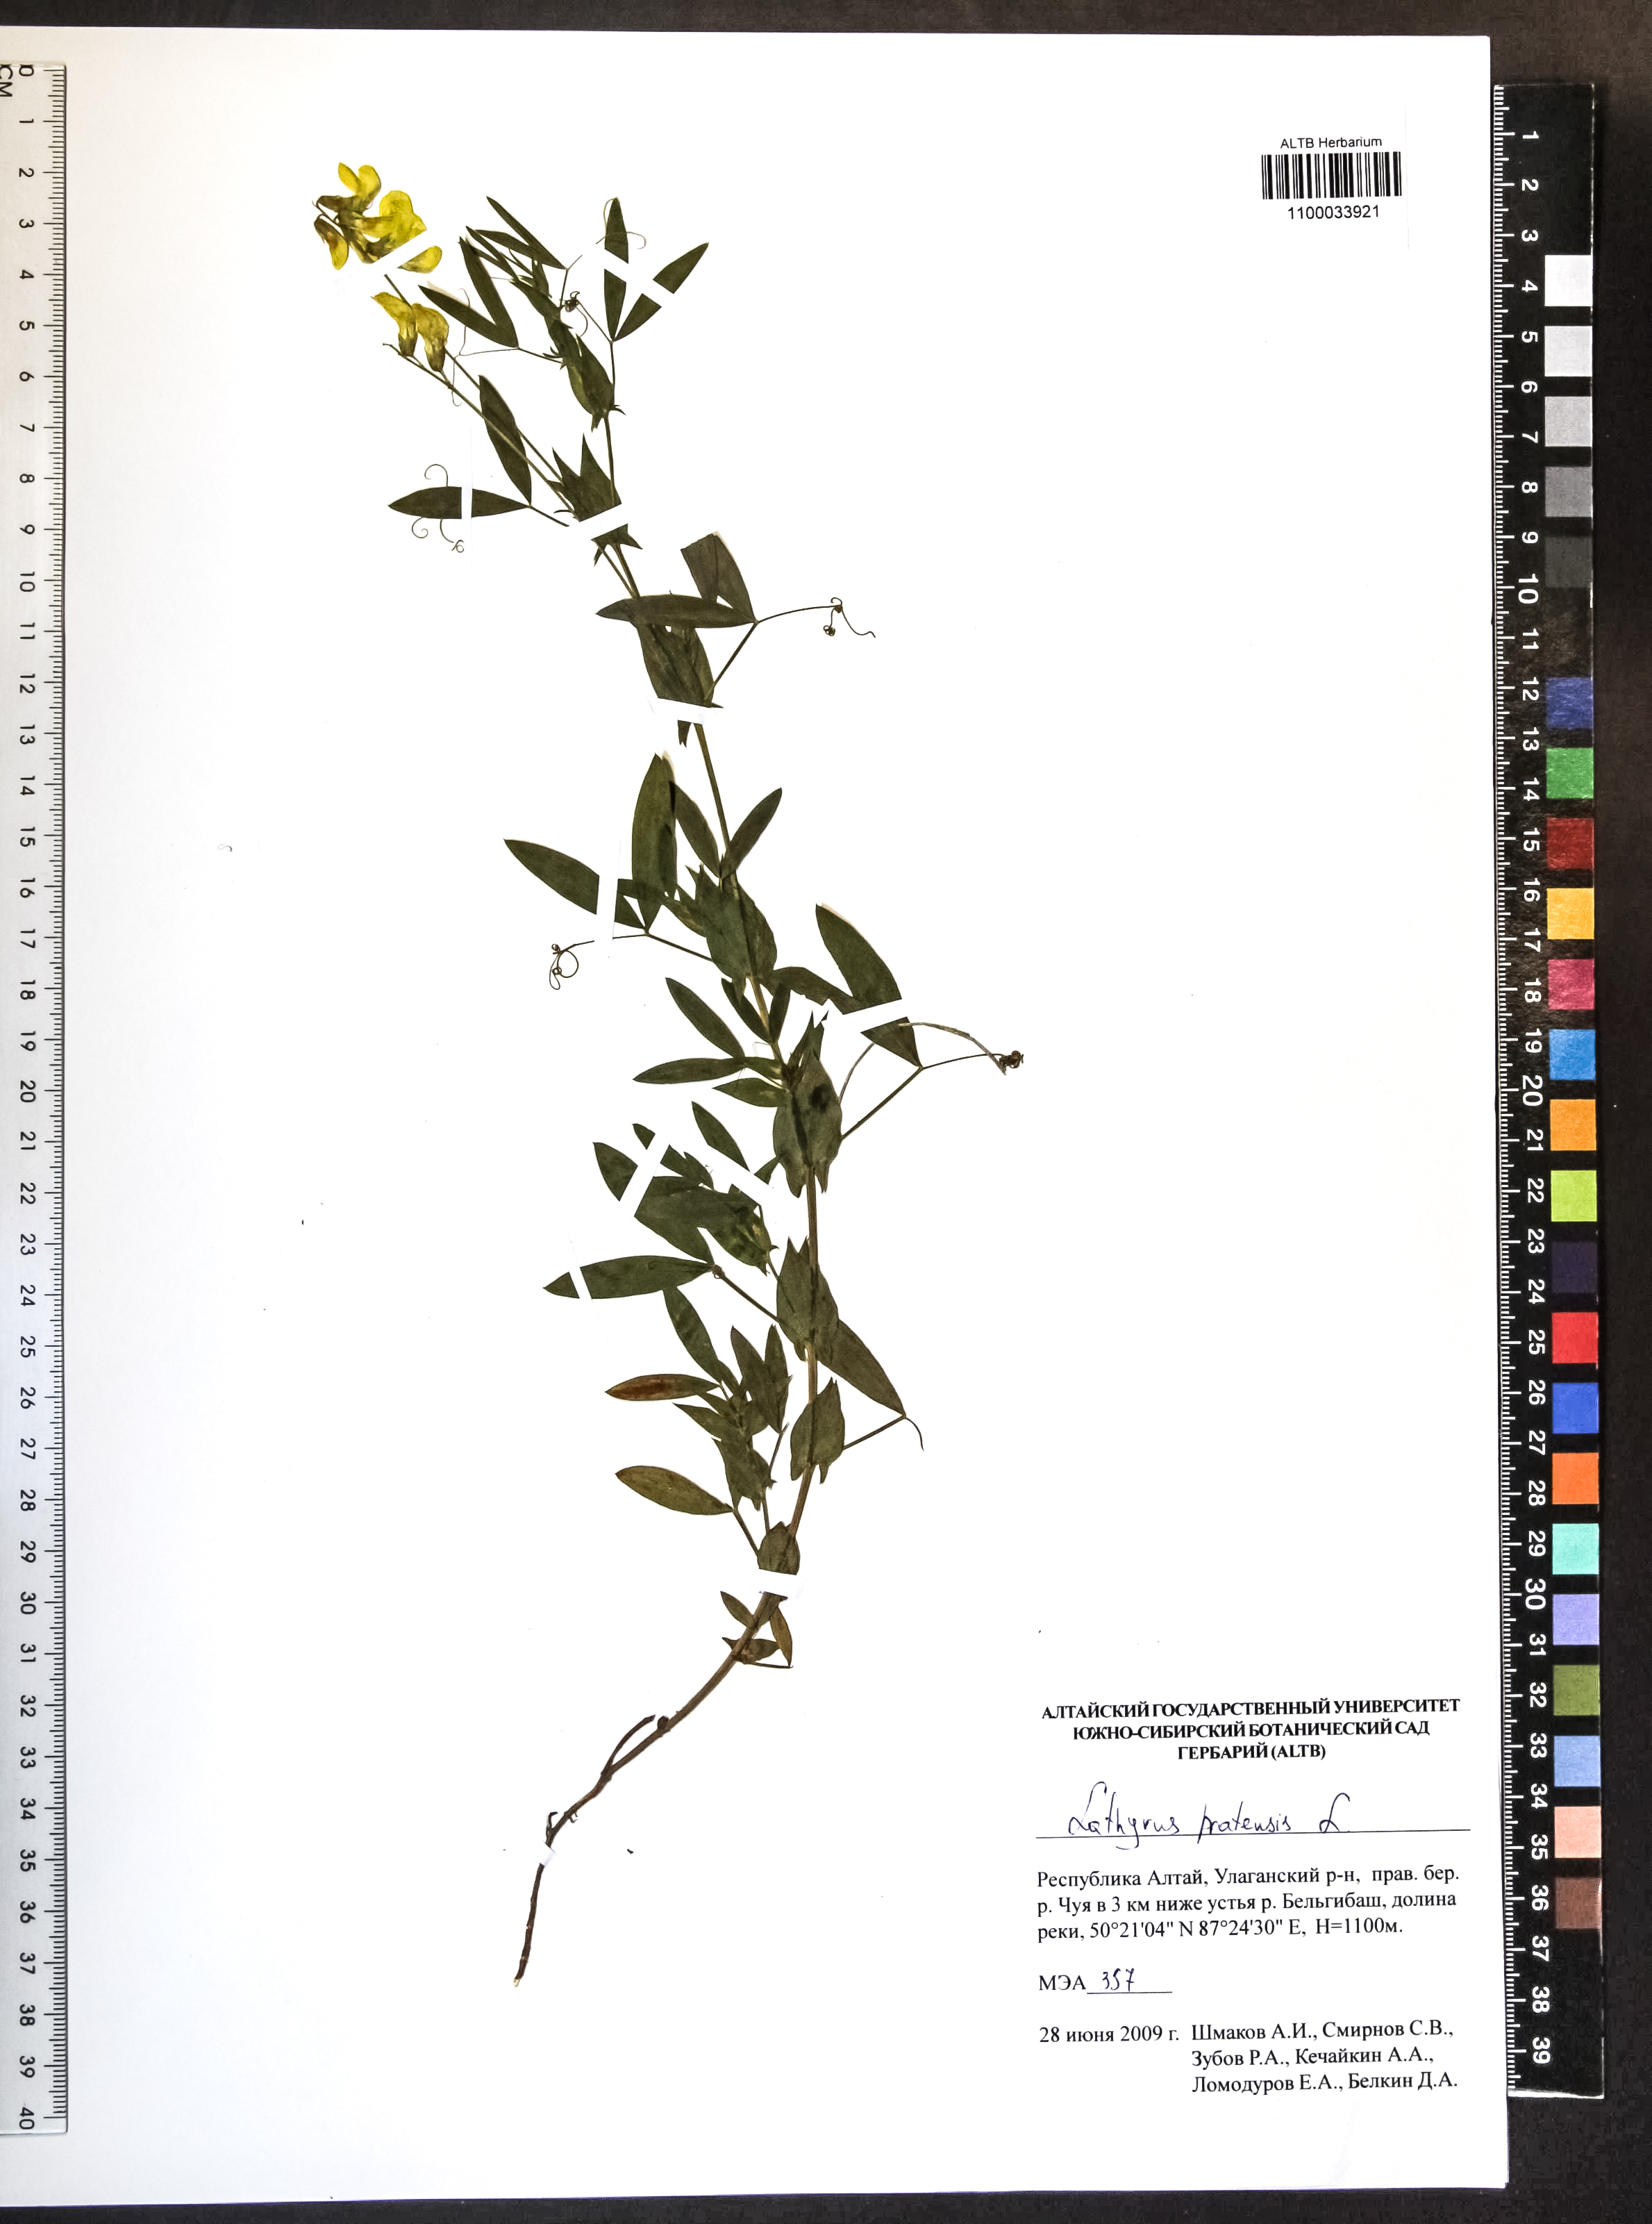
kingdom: Plantae
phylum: Tracheophyta
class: Magnoliopsida
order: Fabales
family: Fabaceae
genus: Lathyrus
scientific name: Lathyrus pratensis
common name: Meadow vetchling
